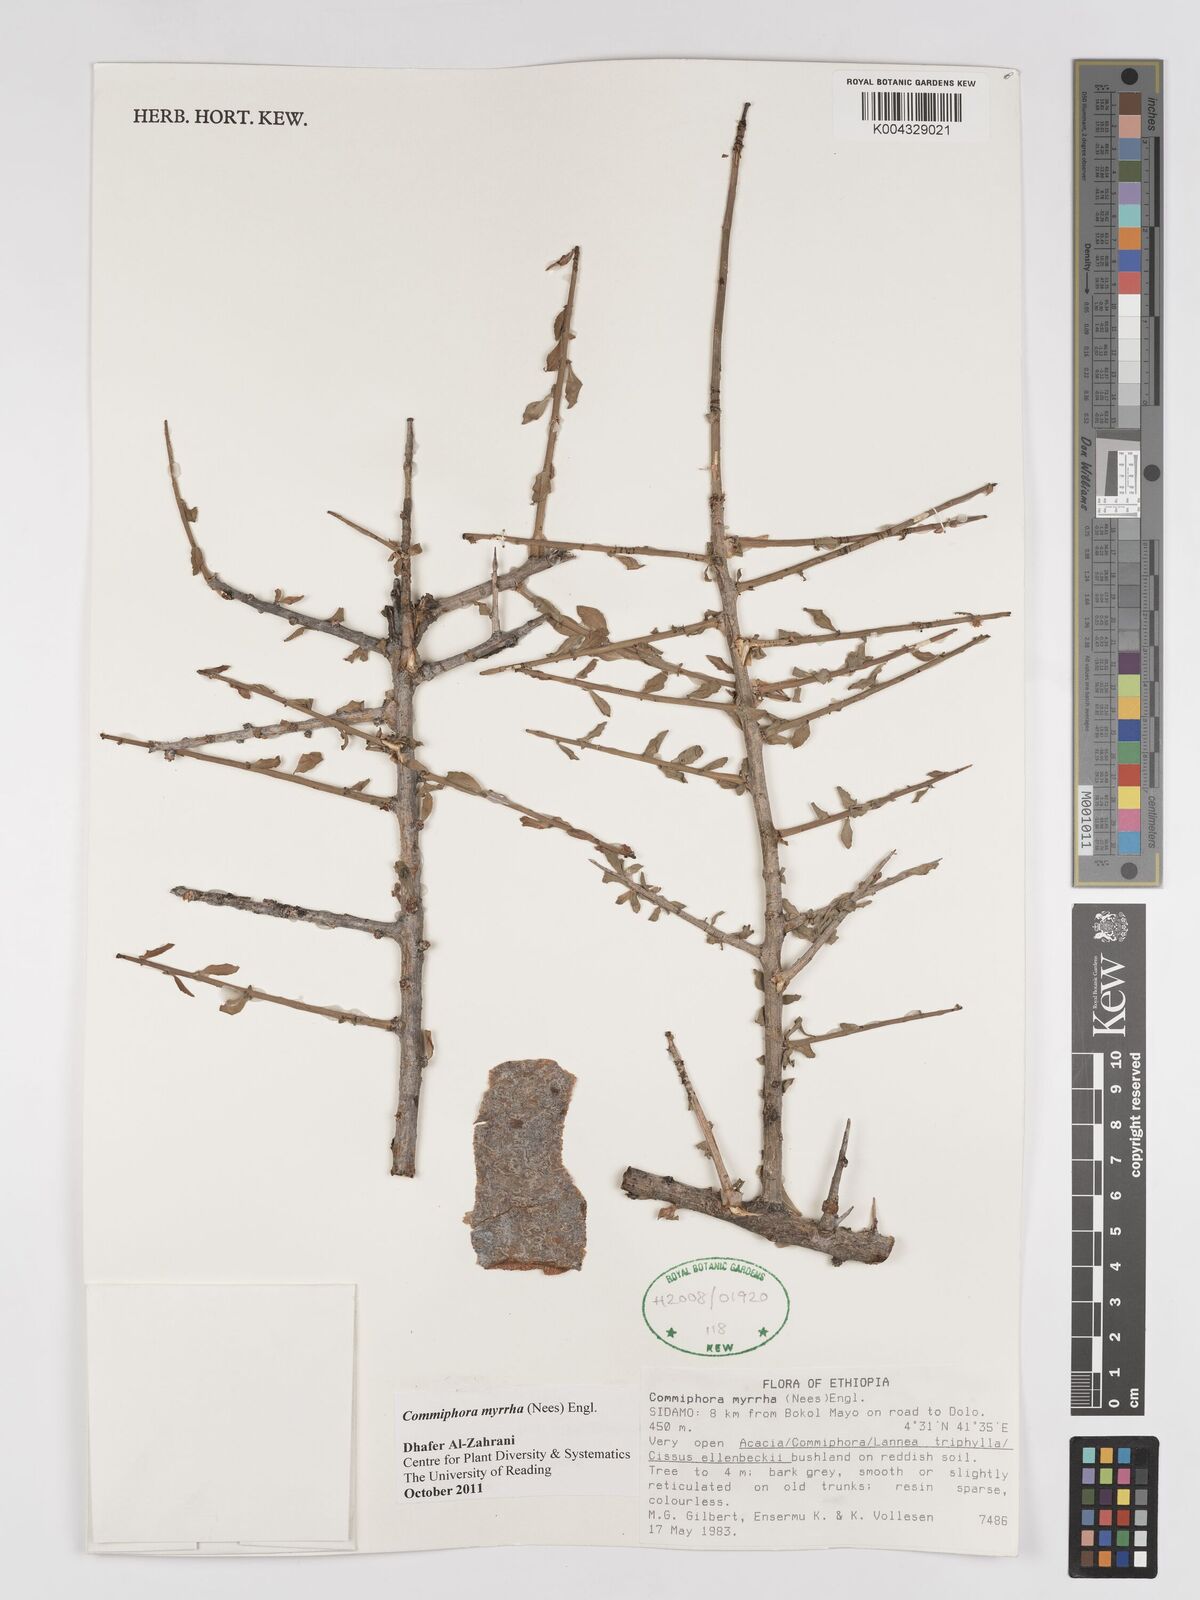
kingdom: Plantae
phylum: Tracheophyta
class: Magnoliopsida
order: Sapindales
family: Burseraceae
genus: Commiphora
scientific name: Commiphora myrrha
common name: African myrrh
